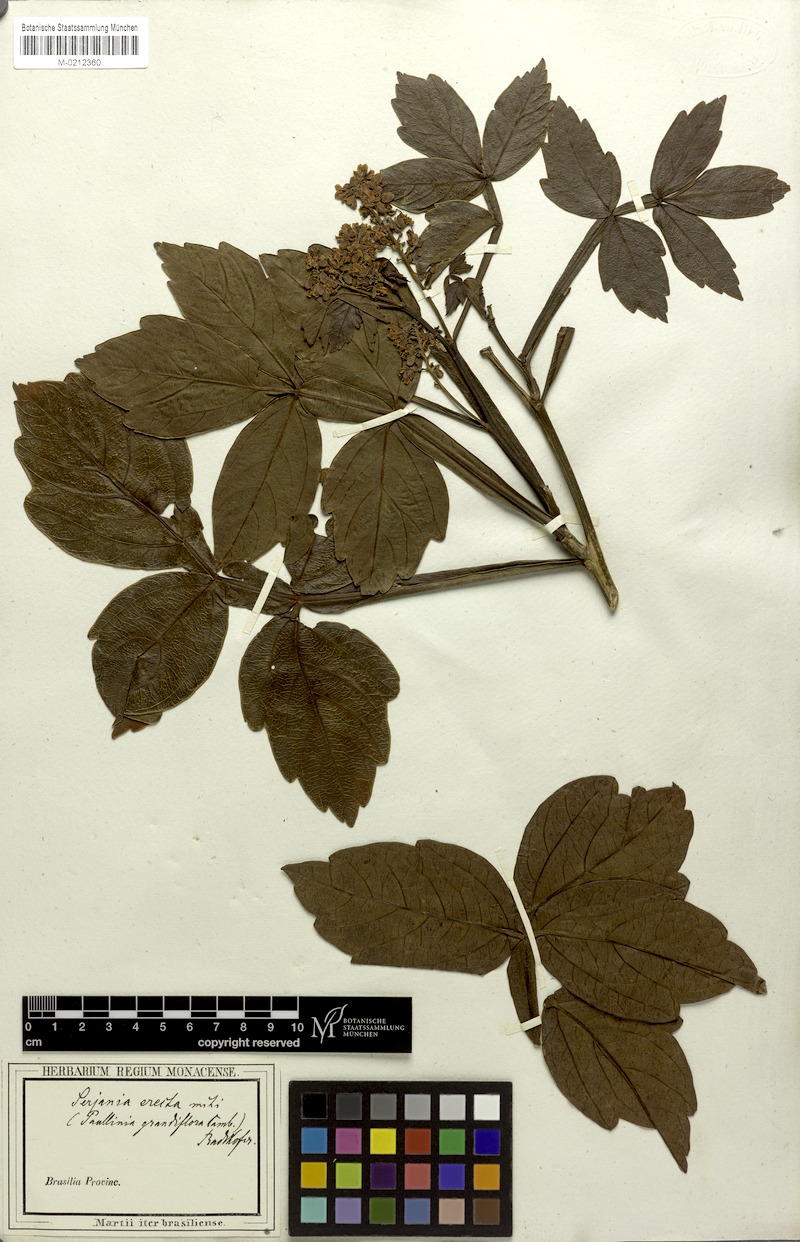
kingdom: Plantae
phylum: Tracheophyta
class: Magnoliopsida
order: Sapindales
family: Sapindaceae
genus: Serjania
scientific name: Serjania erecta
